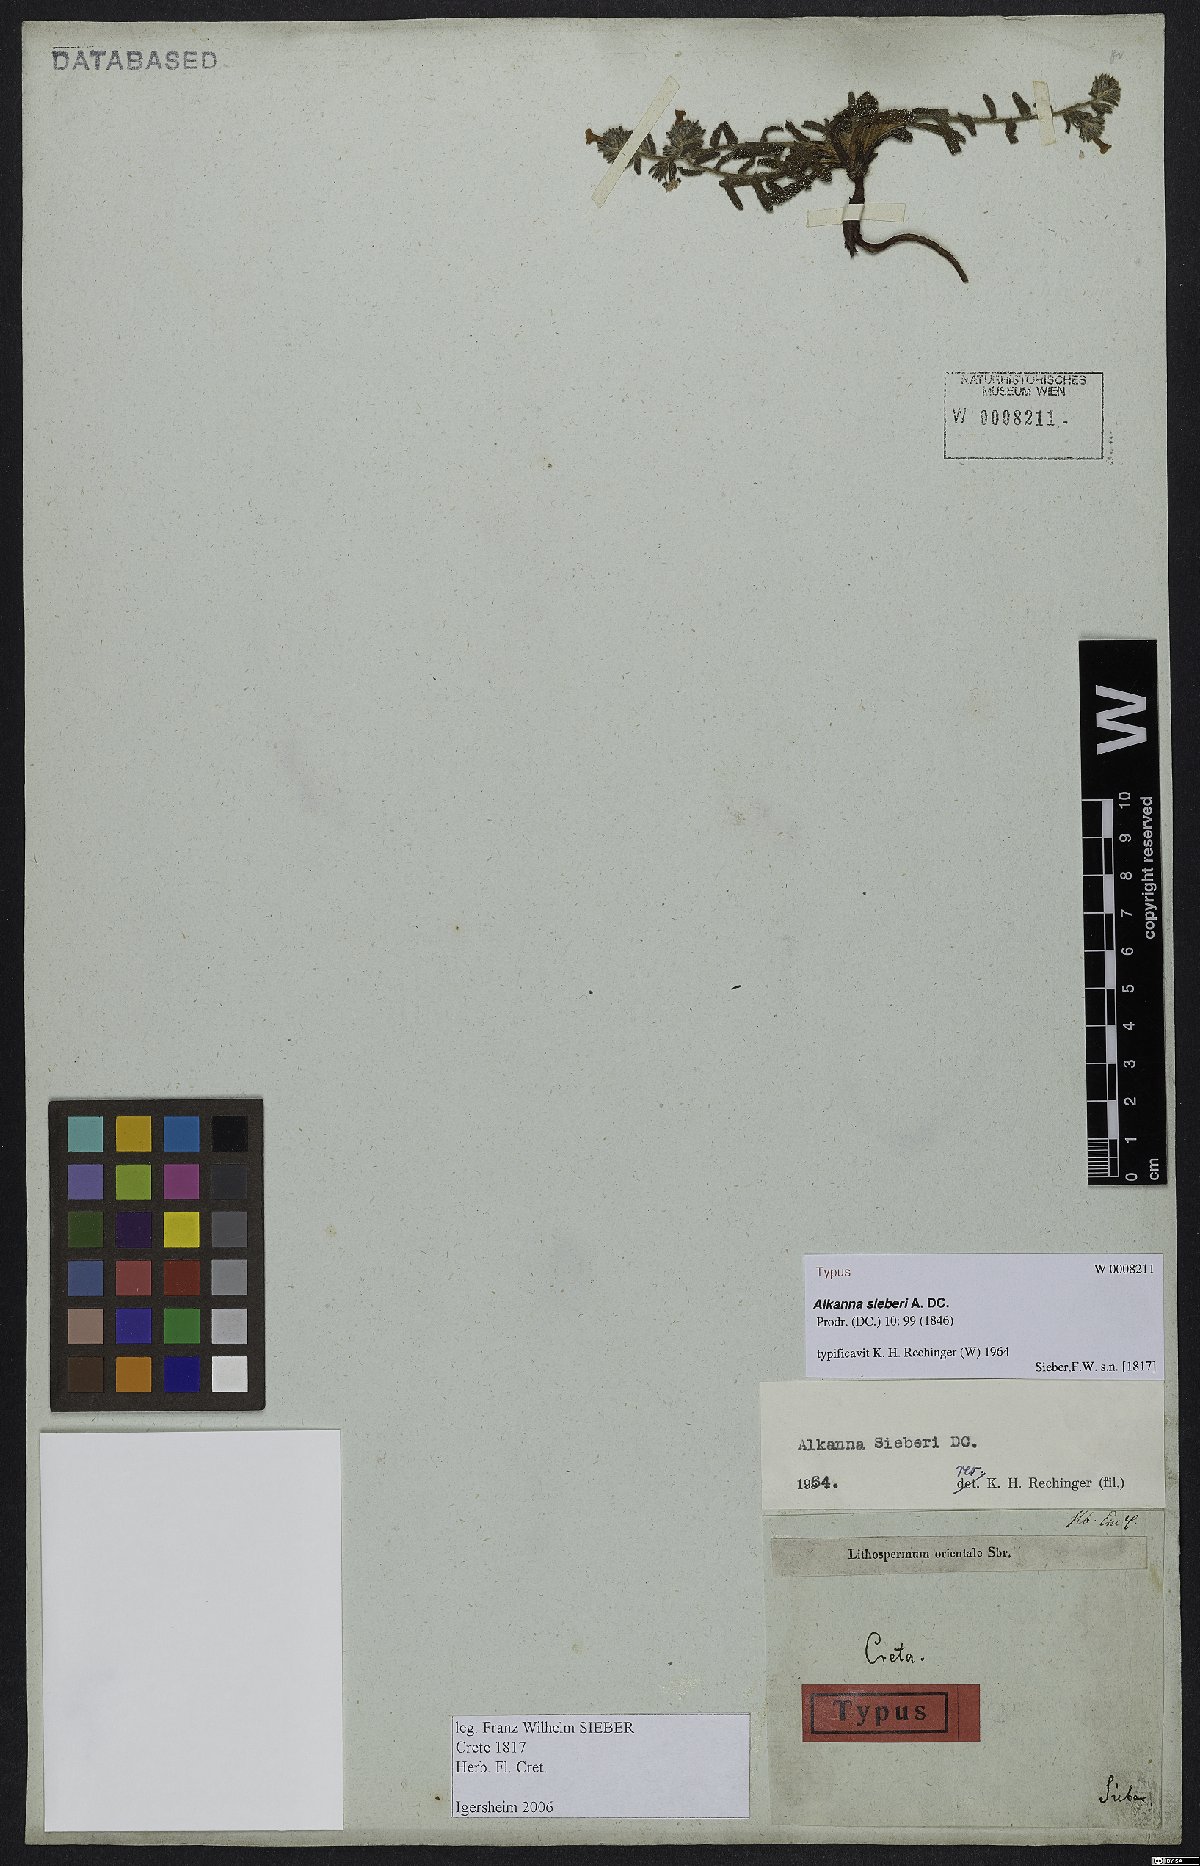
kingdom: Plantae
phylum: Tracheophyta
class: Magnoliopsida
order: Boraginales
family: Boraginaceae
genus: Alkanna
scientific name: Alkanna sieberi
